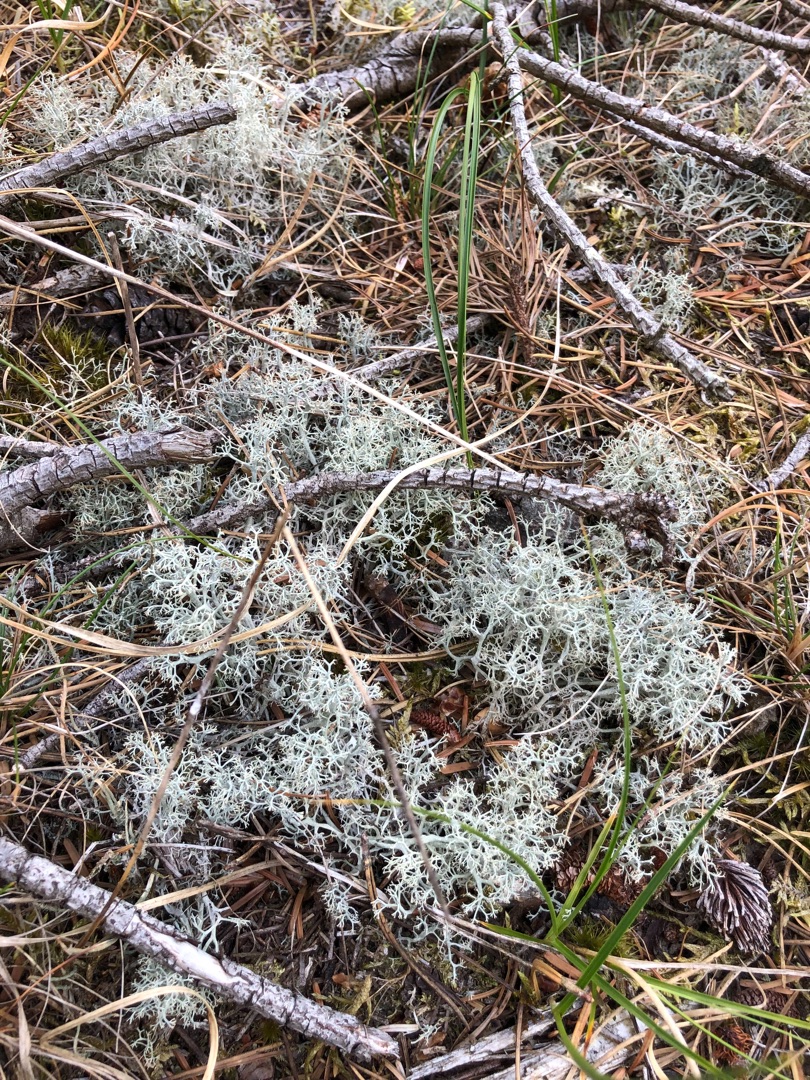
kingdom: Fungi
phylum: Ascomycota
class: Lecanoromycetes
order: Lecanorales
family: Cladoniaceae
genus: Cladonia
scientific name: Cladonia portentosa
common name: Hede-rensdyrlav
